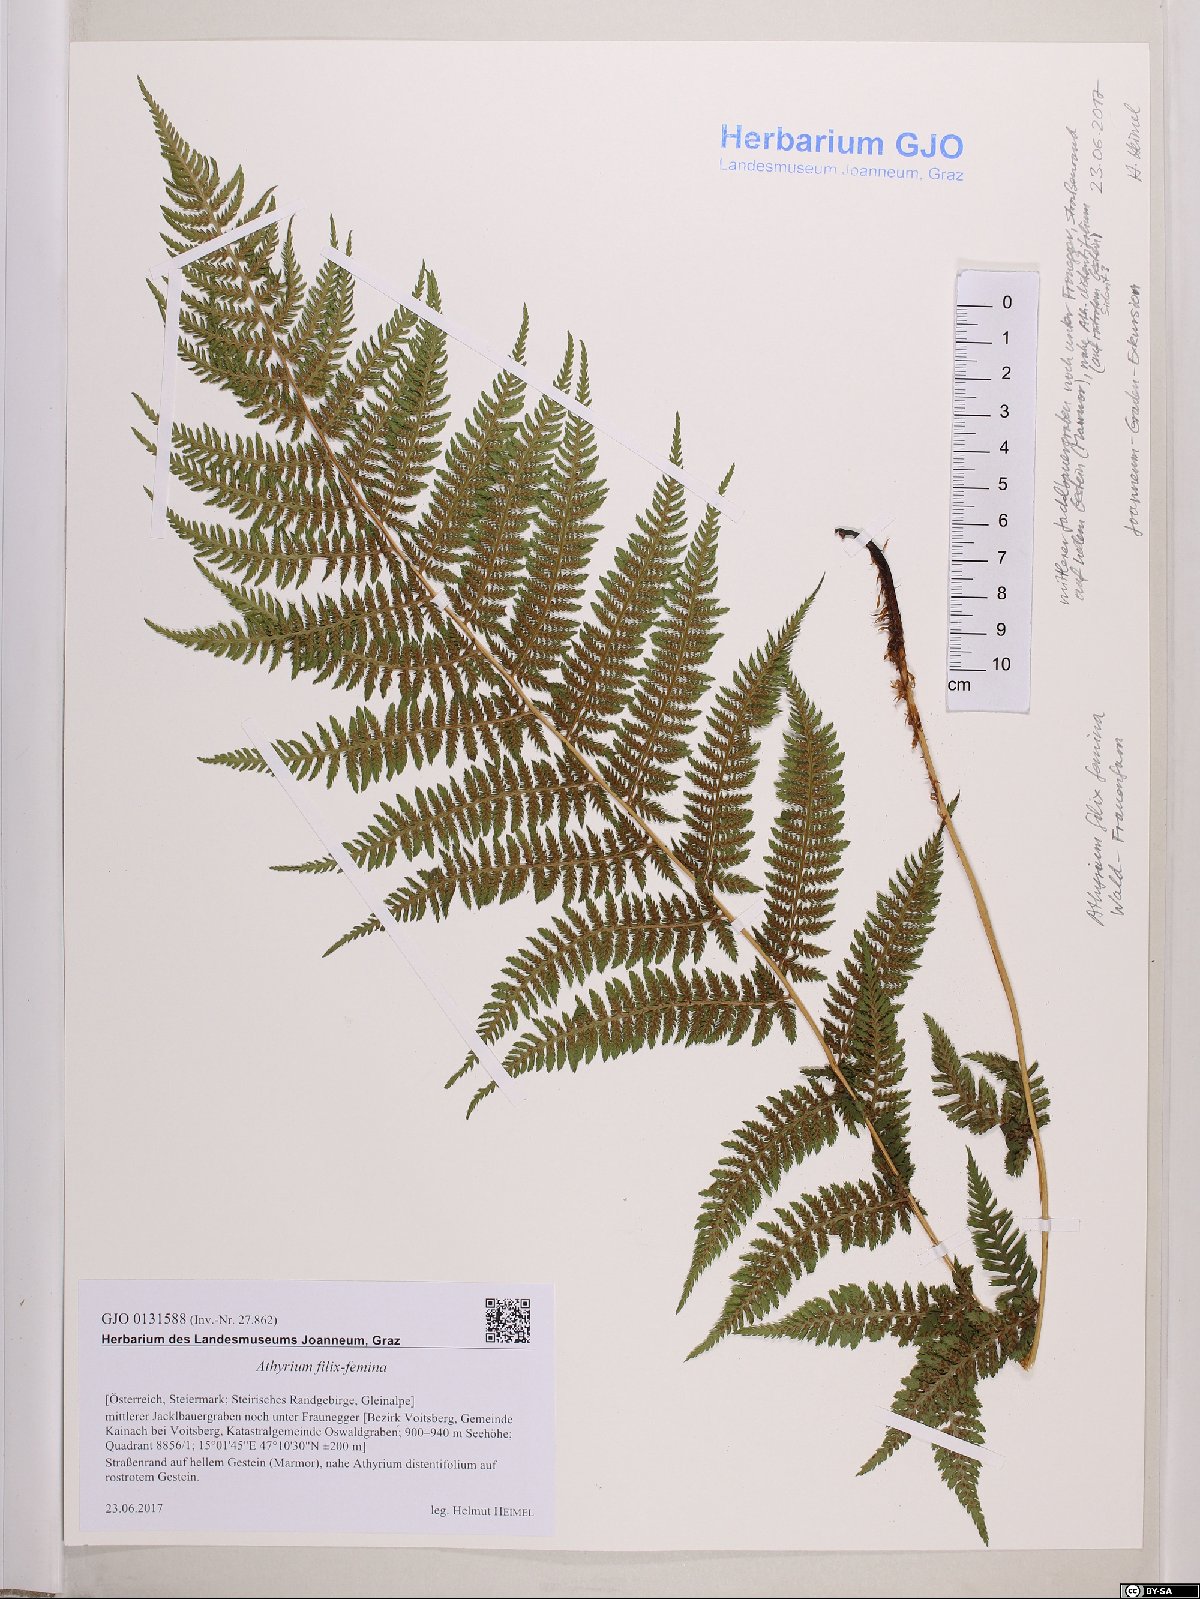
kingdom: Plantae
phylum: Tracheophyta
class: Polypodiopsida
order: Polypodiales
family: Athyriaceae
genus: Athyrium
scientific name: Athyrium filix-femina
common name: Lady fern
